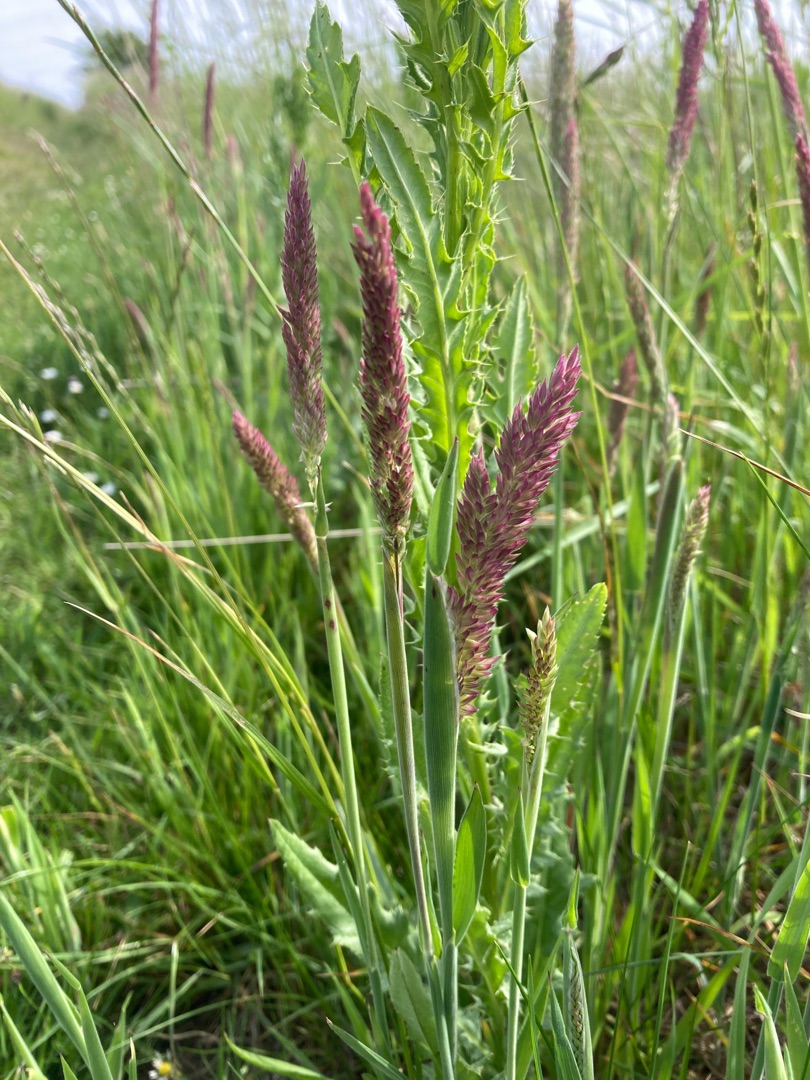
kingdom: Plantae
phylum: Tracheophyta
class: Liliopsida
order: Poales
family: Poaceae
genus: Holcus
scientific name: Holcus lanatus
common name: Fløjlsgræs
